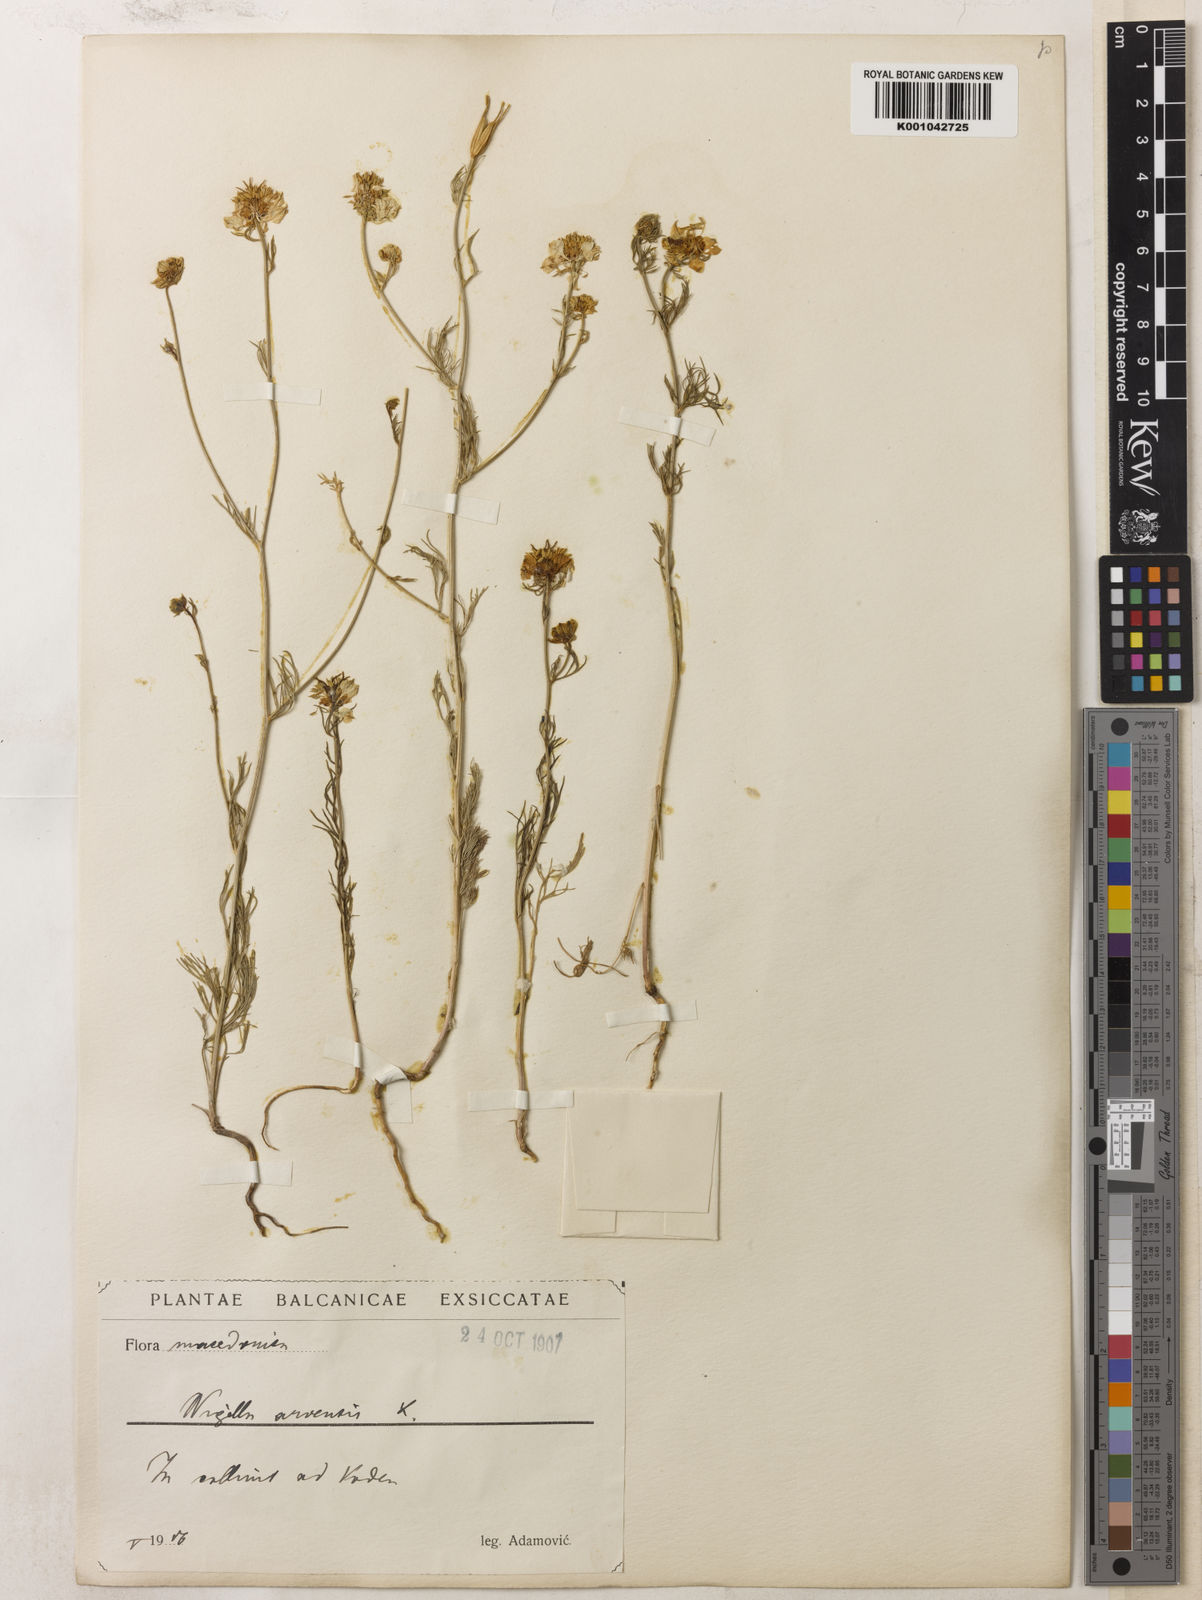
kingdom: Plantae
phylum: Tracheophyta
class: Magnoliopsida
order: Ranunculales
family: Ranunculaceae
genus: Nigella
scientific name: Nigella arvensis
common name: Wild fennel-flower
